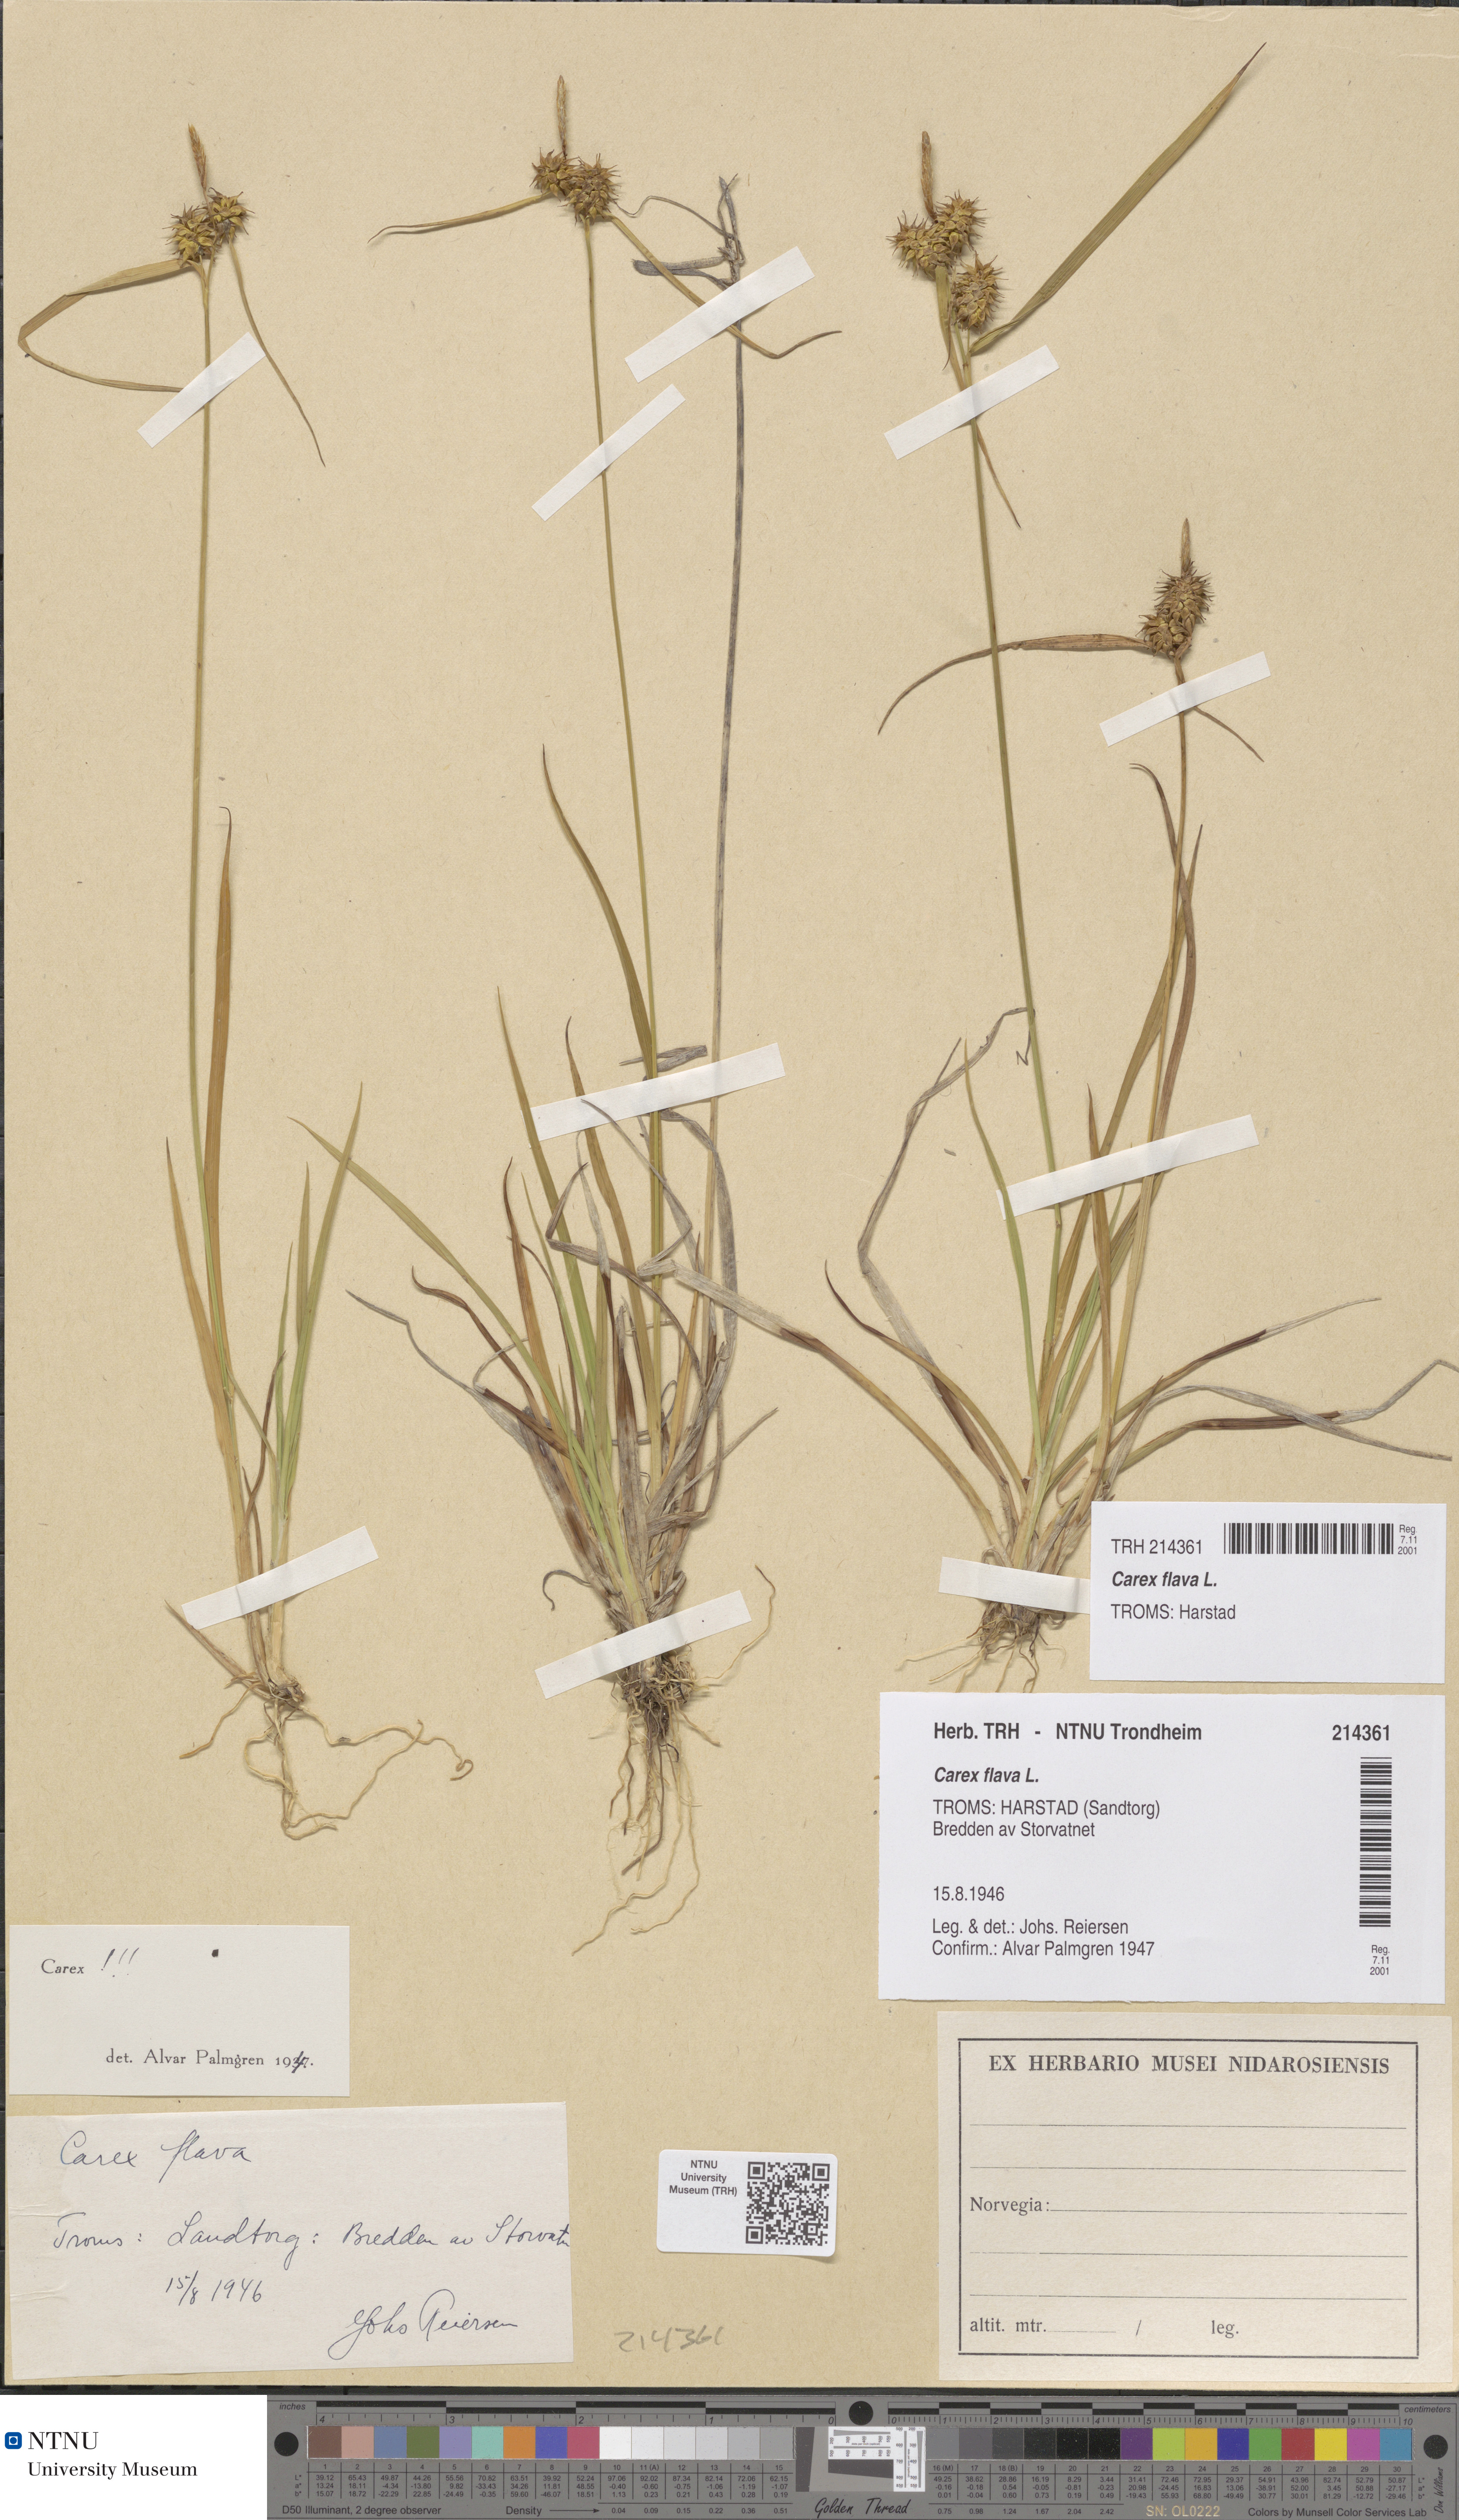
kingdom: Plantae
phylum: Tracheophyta
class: Liliopsida
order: Poales
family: Cyperaceae
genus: Carex
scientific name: Carex flava
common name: Large yellow-sedge
